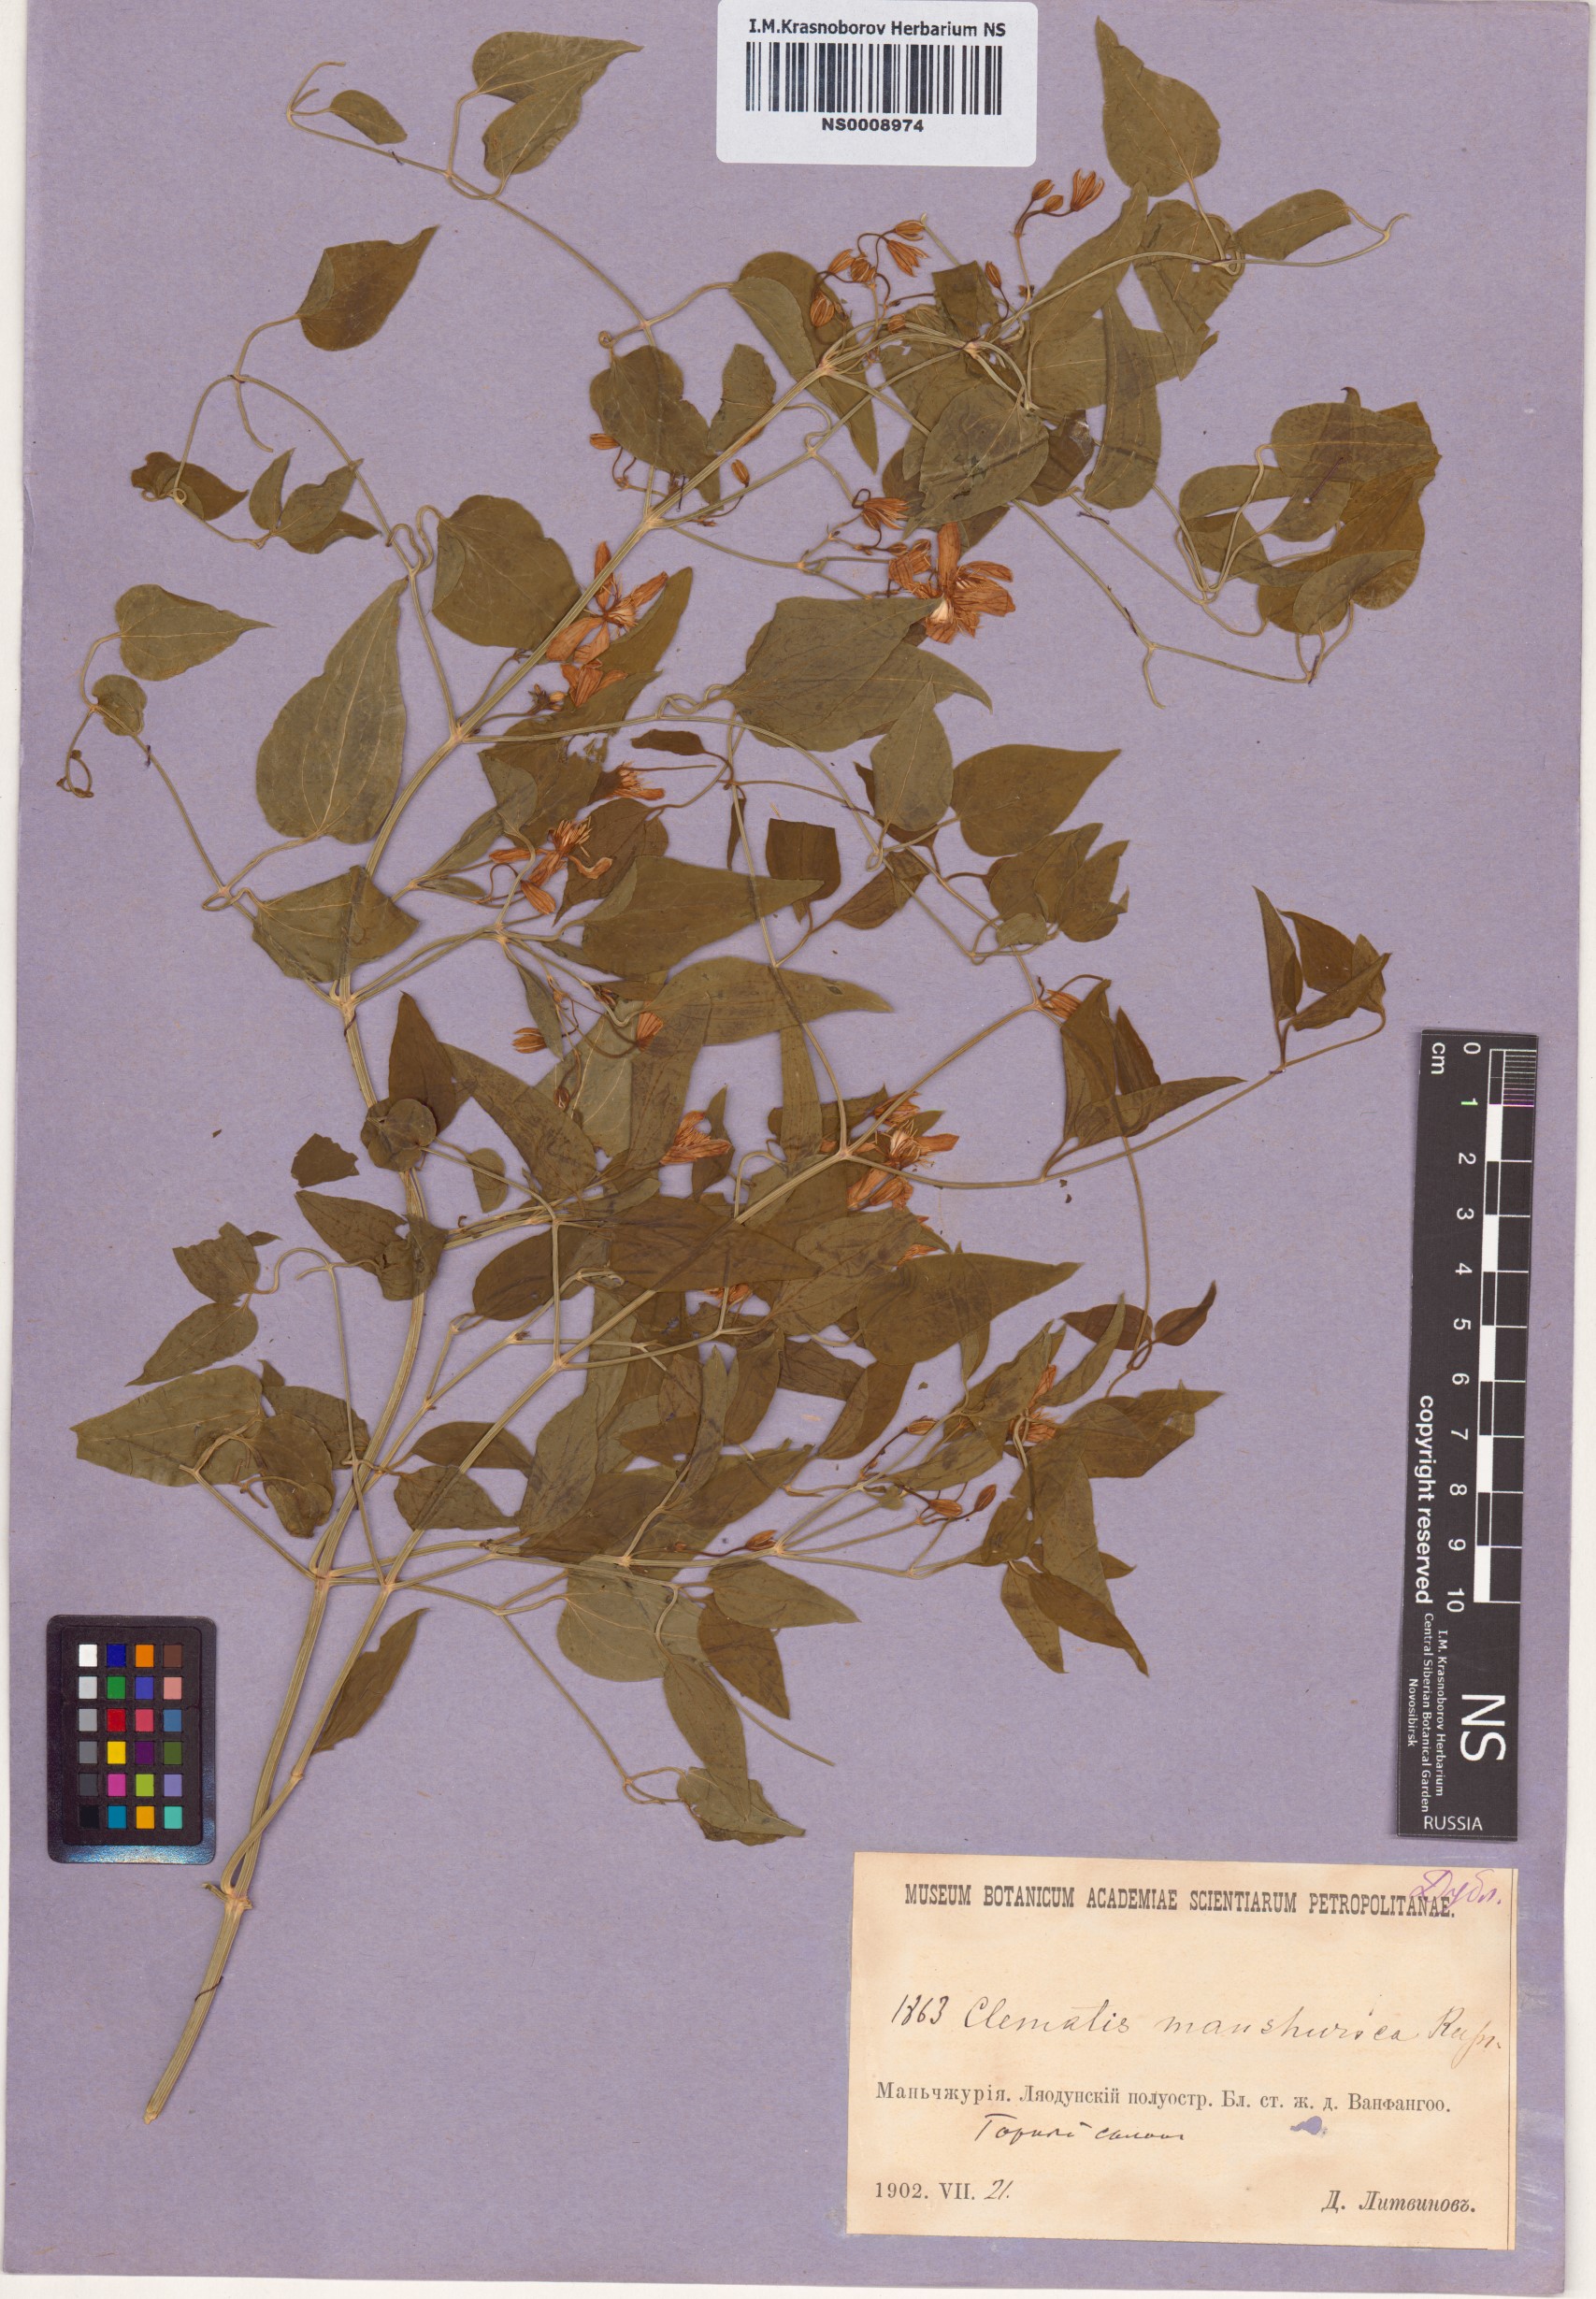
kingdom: Plantae
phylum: Tracheophyta
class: Magnoliopsida
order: Ranunculales
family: Ranunculaceae
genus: Clematis
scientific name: Clematis terniflora
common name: Sweet autumn clematis
